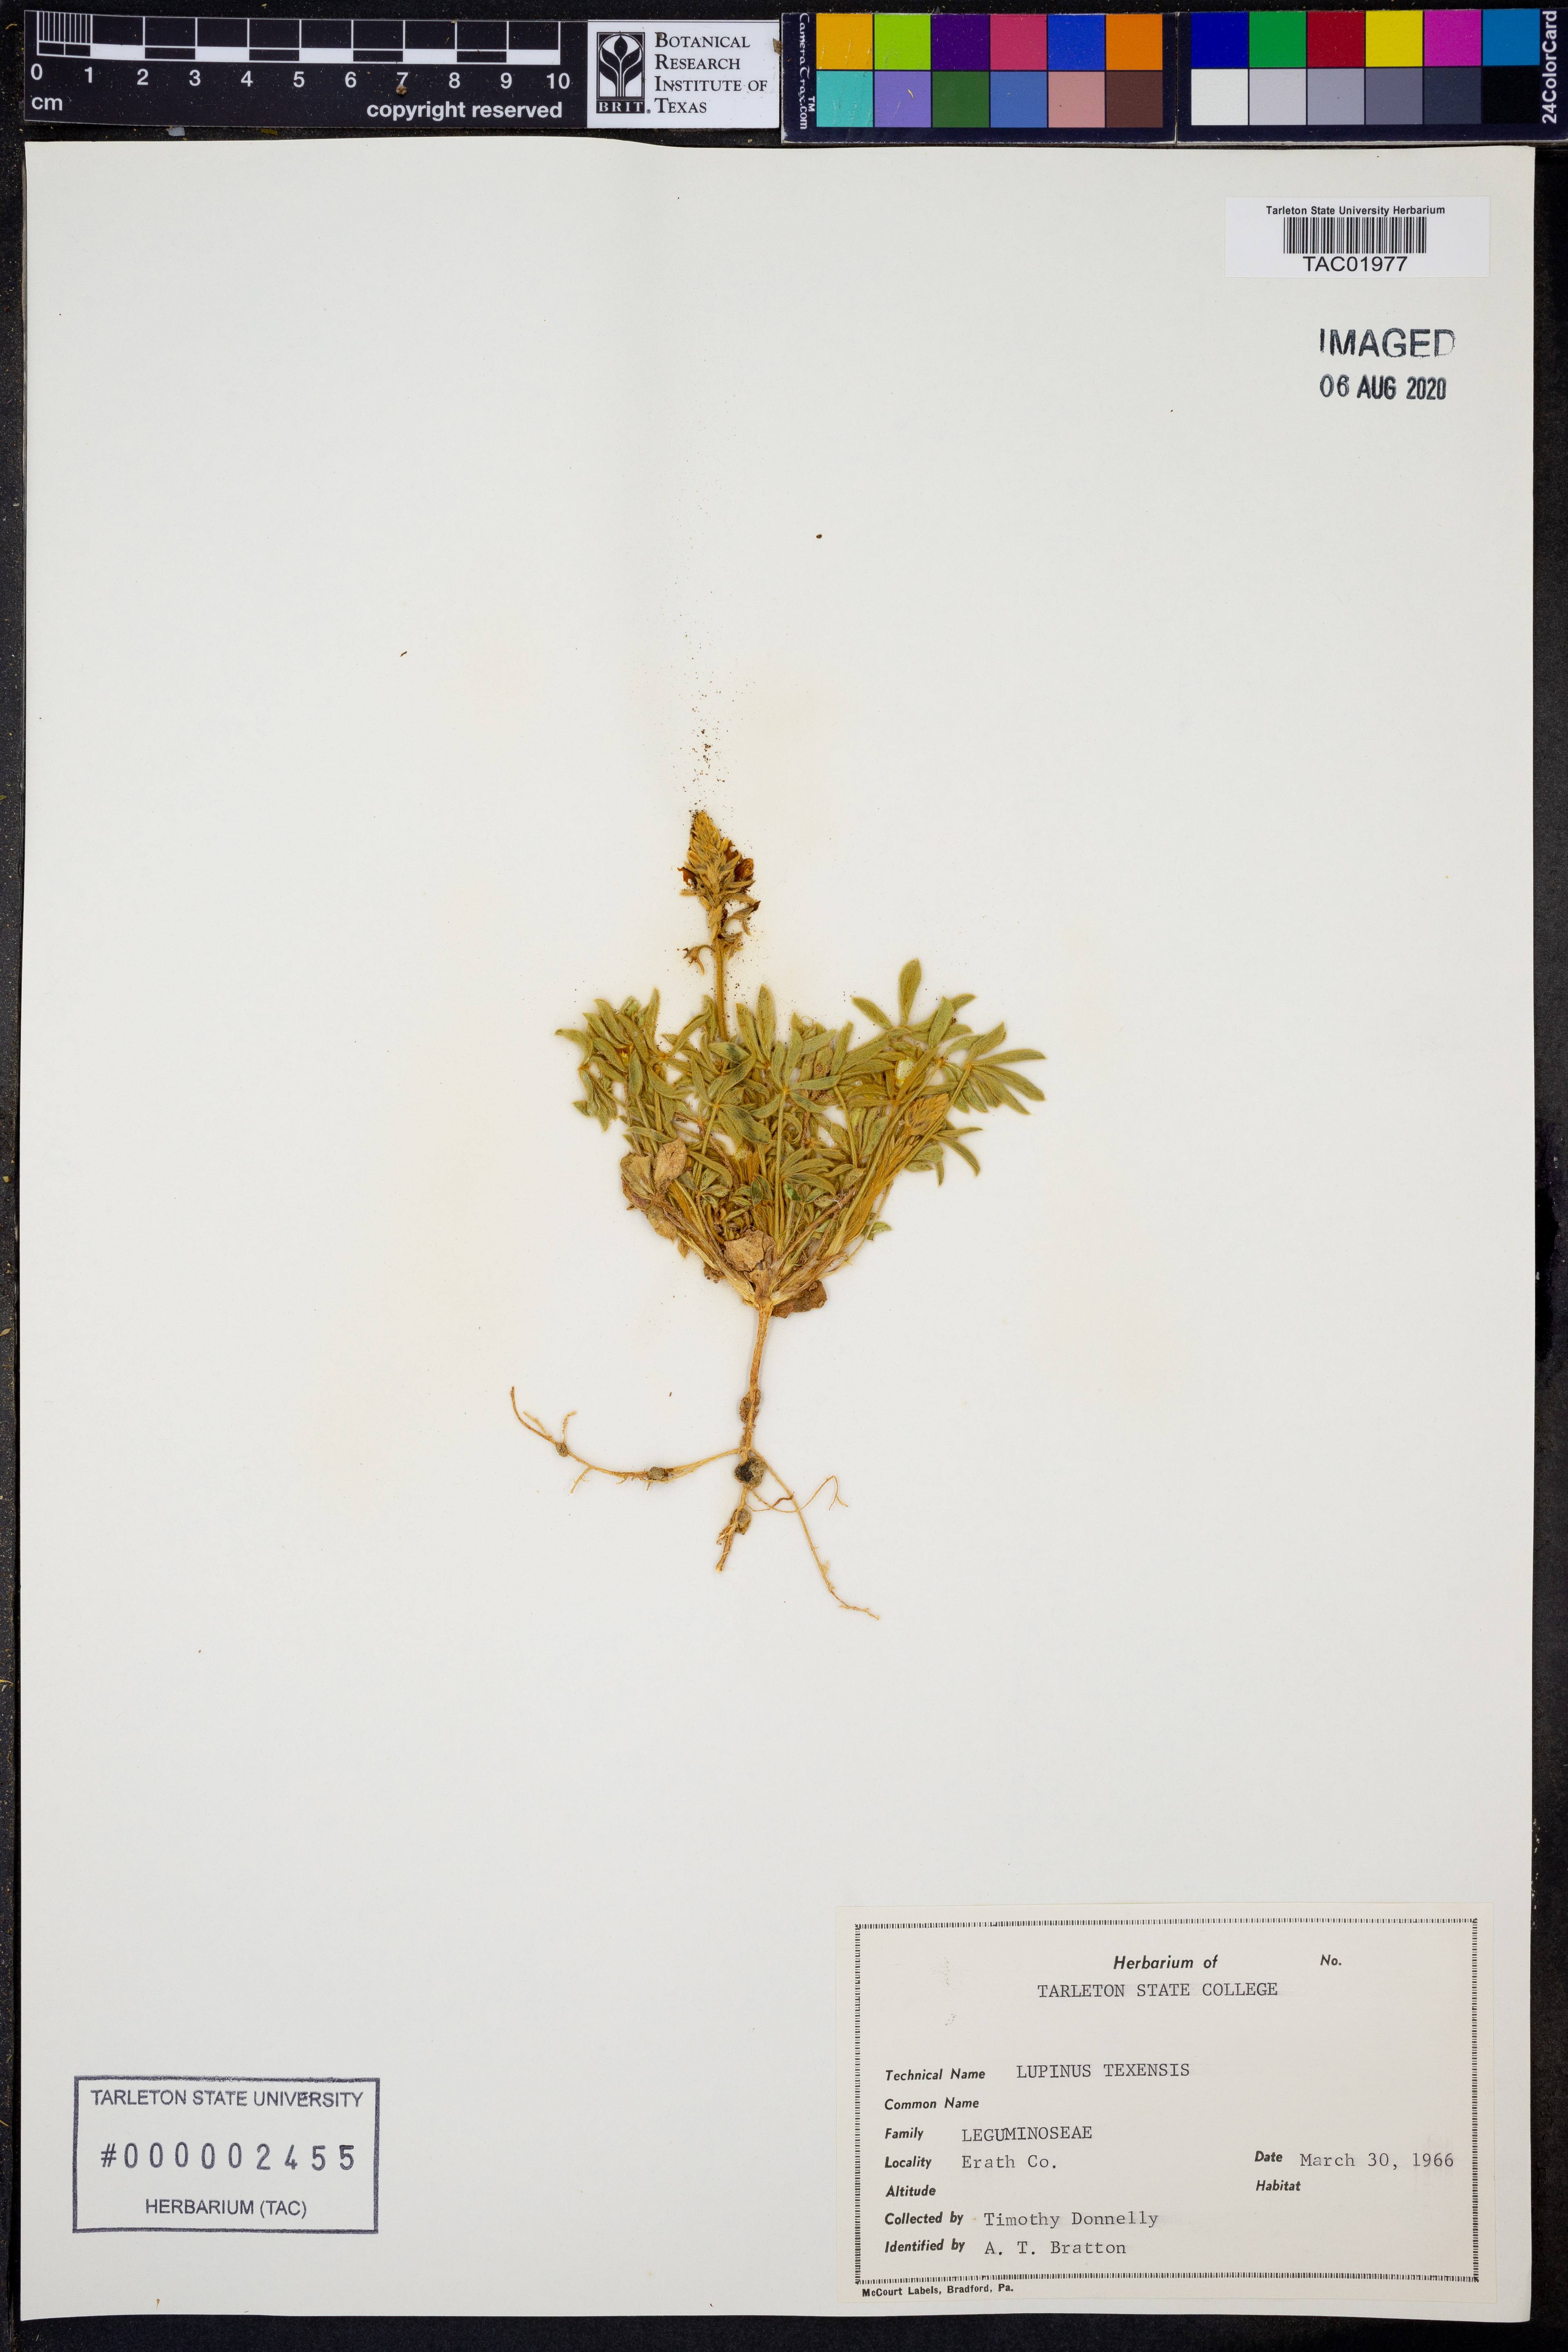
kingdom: Plantae
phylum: Tracheophyta
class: Magnoliopsida
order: Fabales
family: Fabaceae
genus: Lupinus
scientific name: Lupinus texensis
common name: Texas bluebonnet
